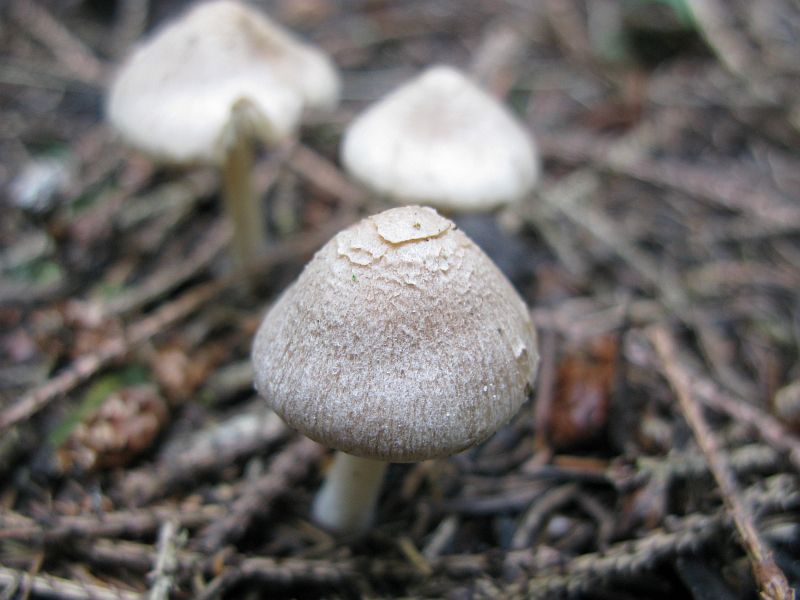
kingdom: Fungi
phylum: Basidiomycota
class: Agaricomycetes
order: Agaricales
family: Inocybaceae
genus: Inocybe
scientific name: Inocybe sindonia
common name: bleg trævlhat
